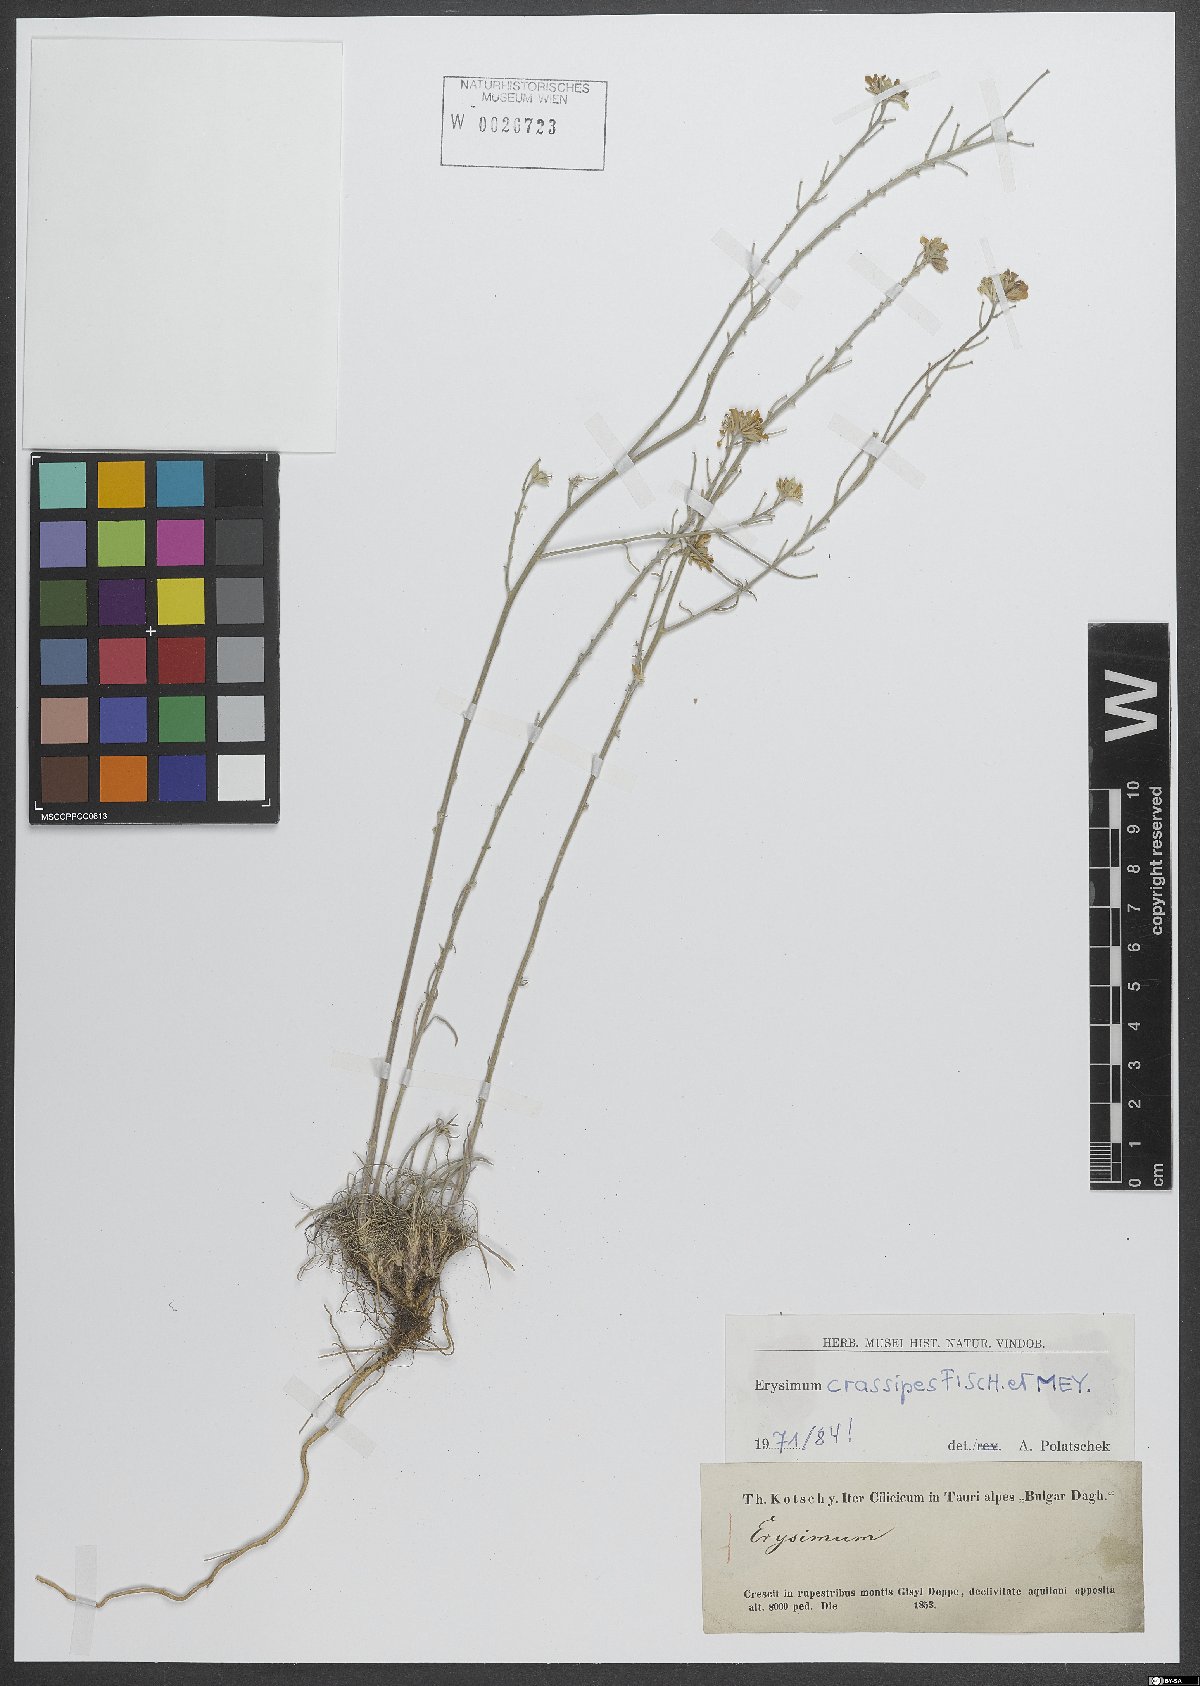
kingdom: Plantae
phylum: Tracheophyta
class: Magnoliopsida
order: Brassicales
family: Brassicaceae
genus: Erysimum
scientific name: Erysimum crassipes
